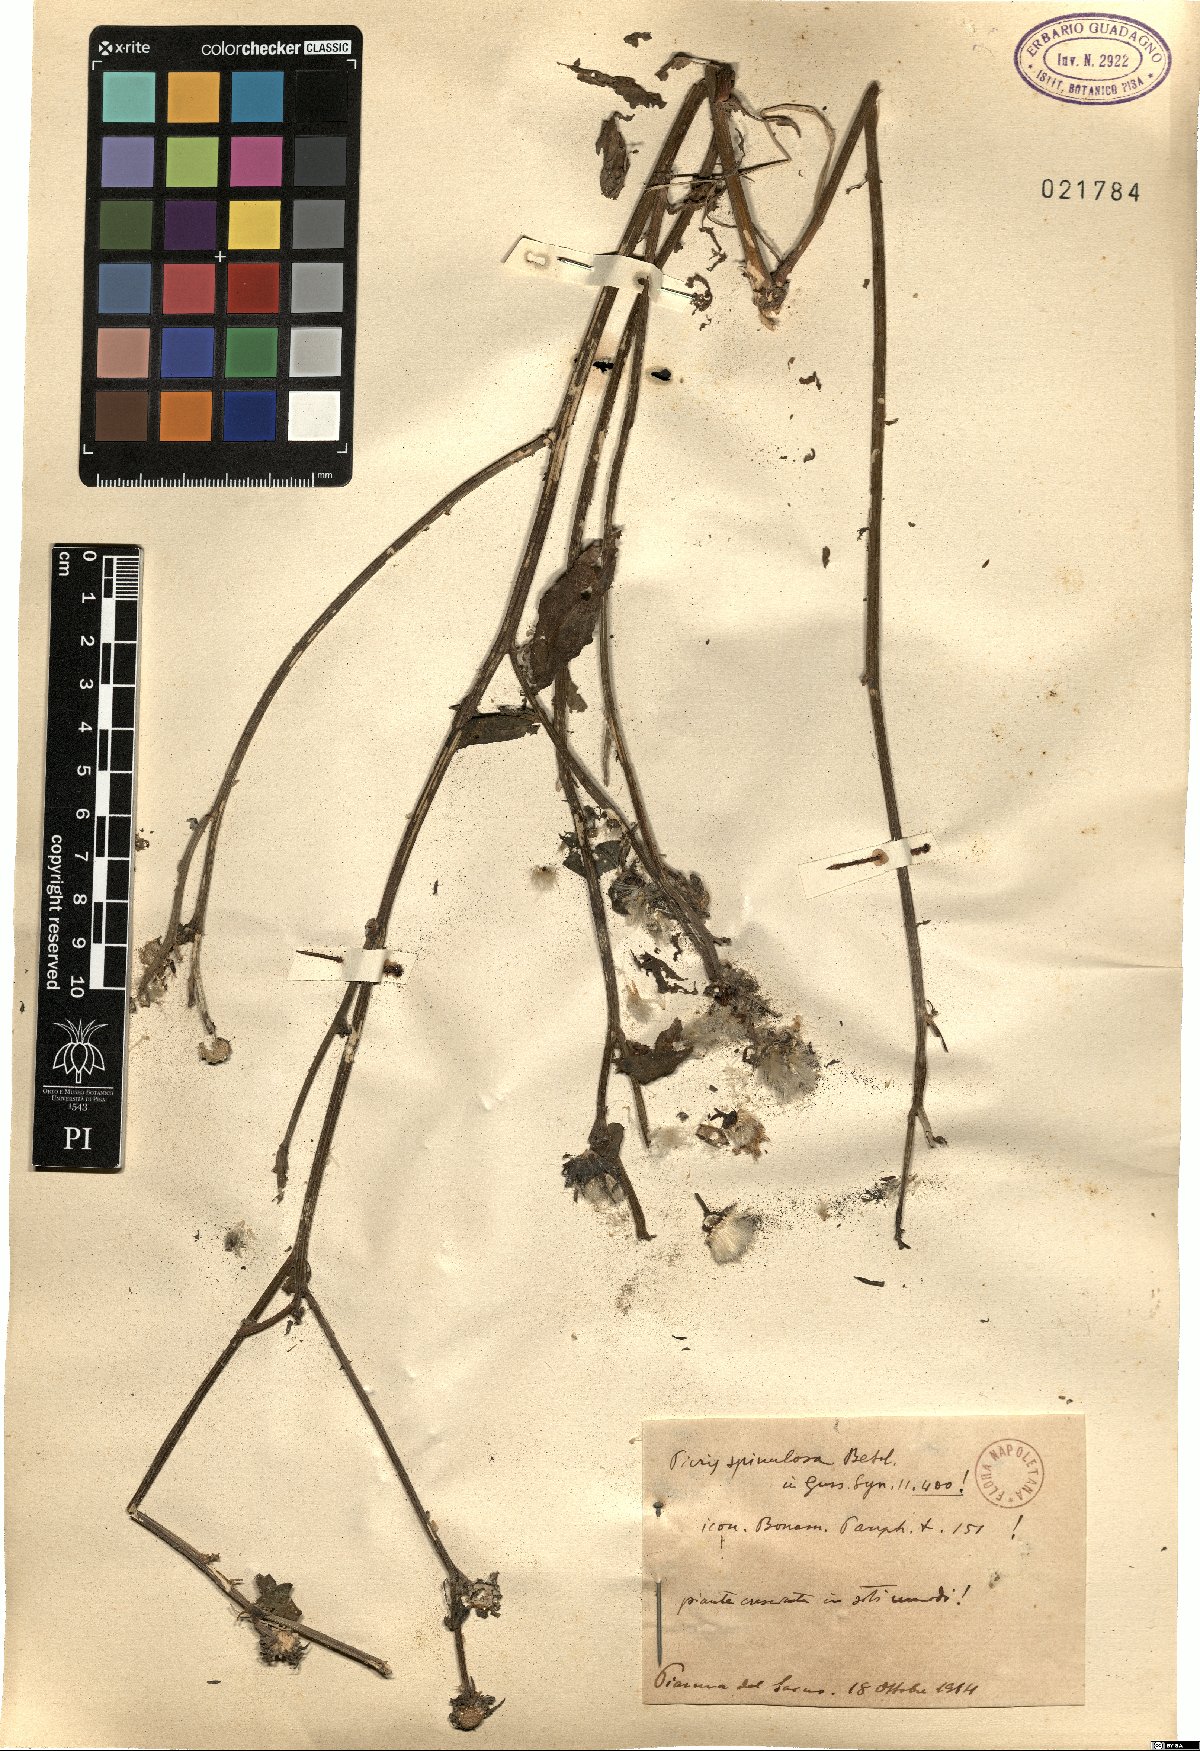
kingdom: Plantae
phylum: Tracheophyta
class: Magnoliopsida
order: Asterales
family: Asteraceae
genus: Picris
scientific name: Picris hieracioides
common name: Hawkweed oxtongue
